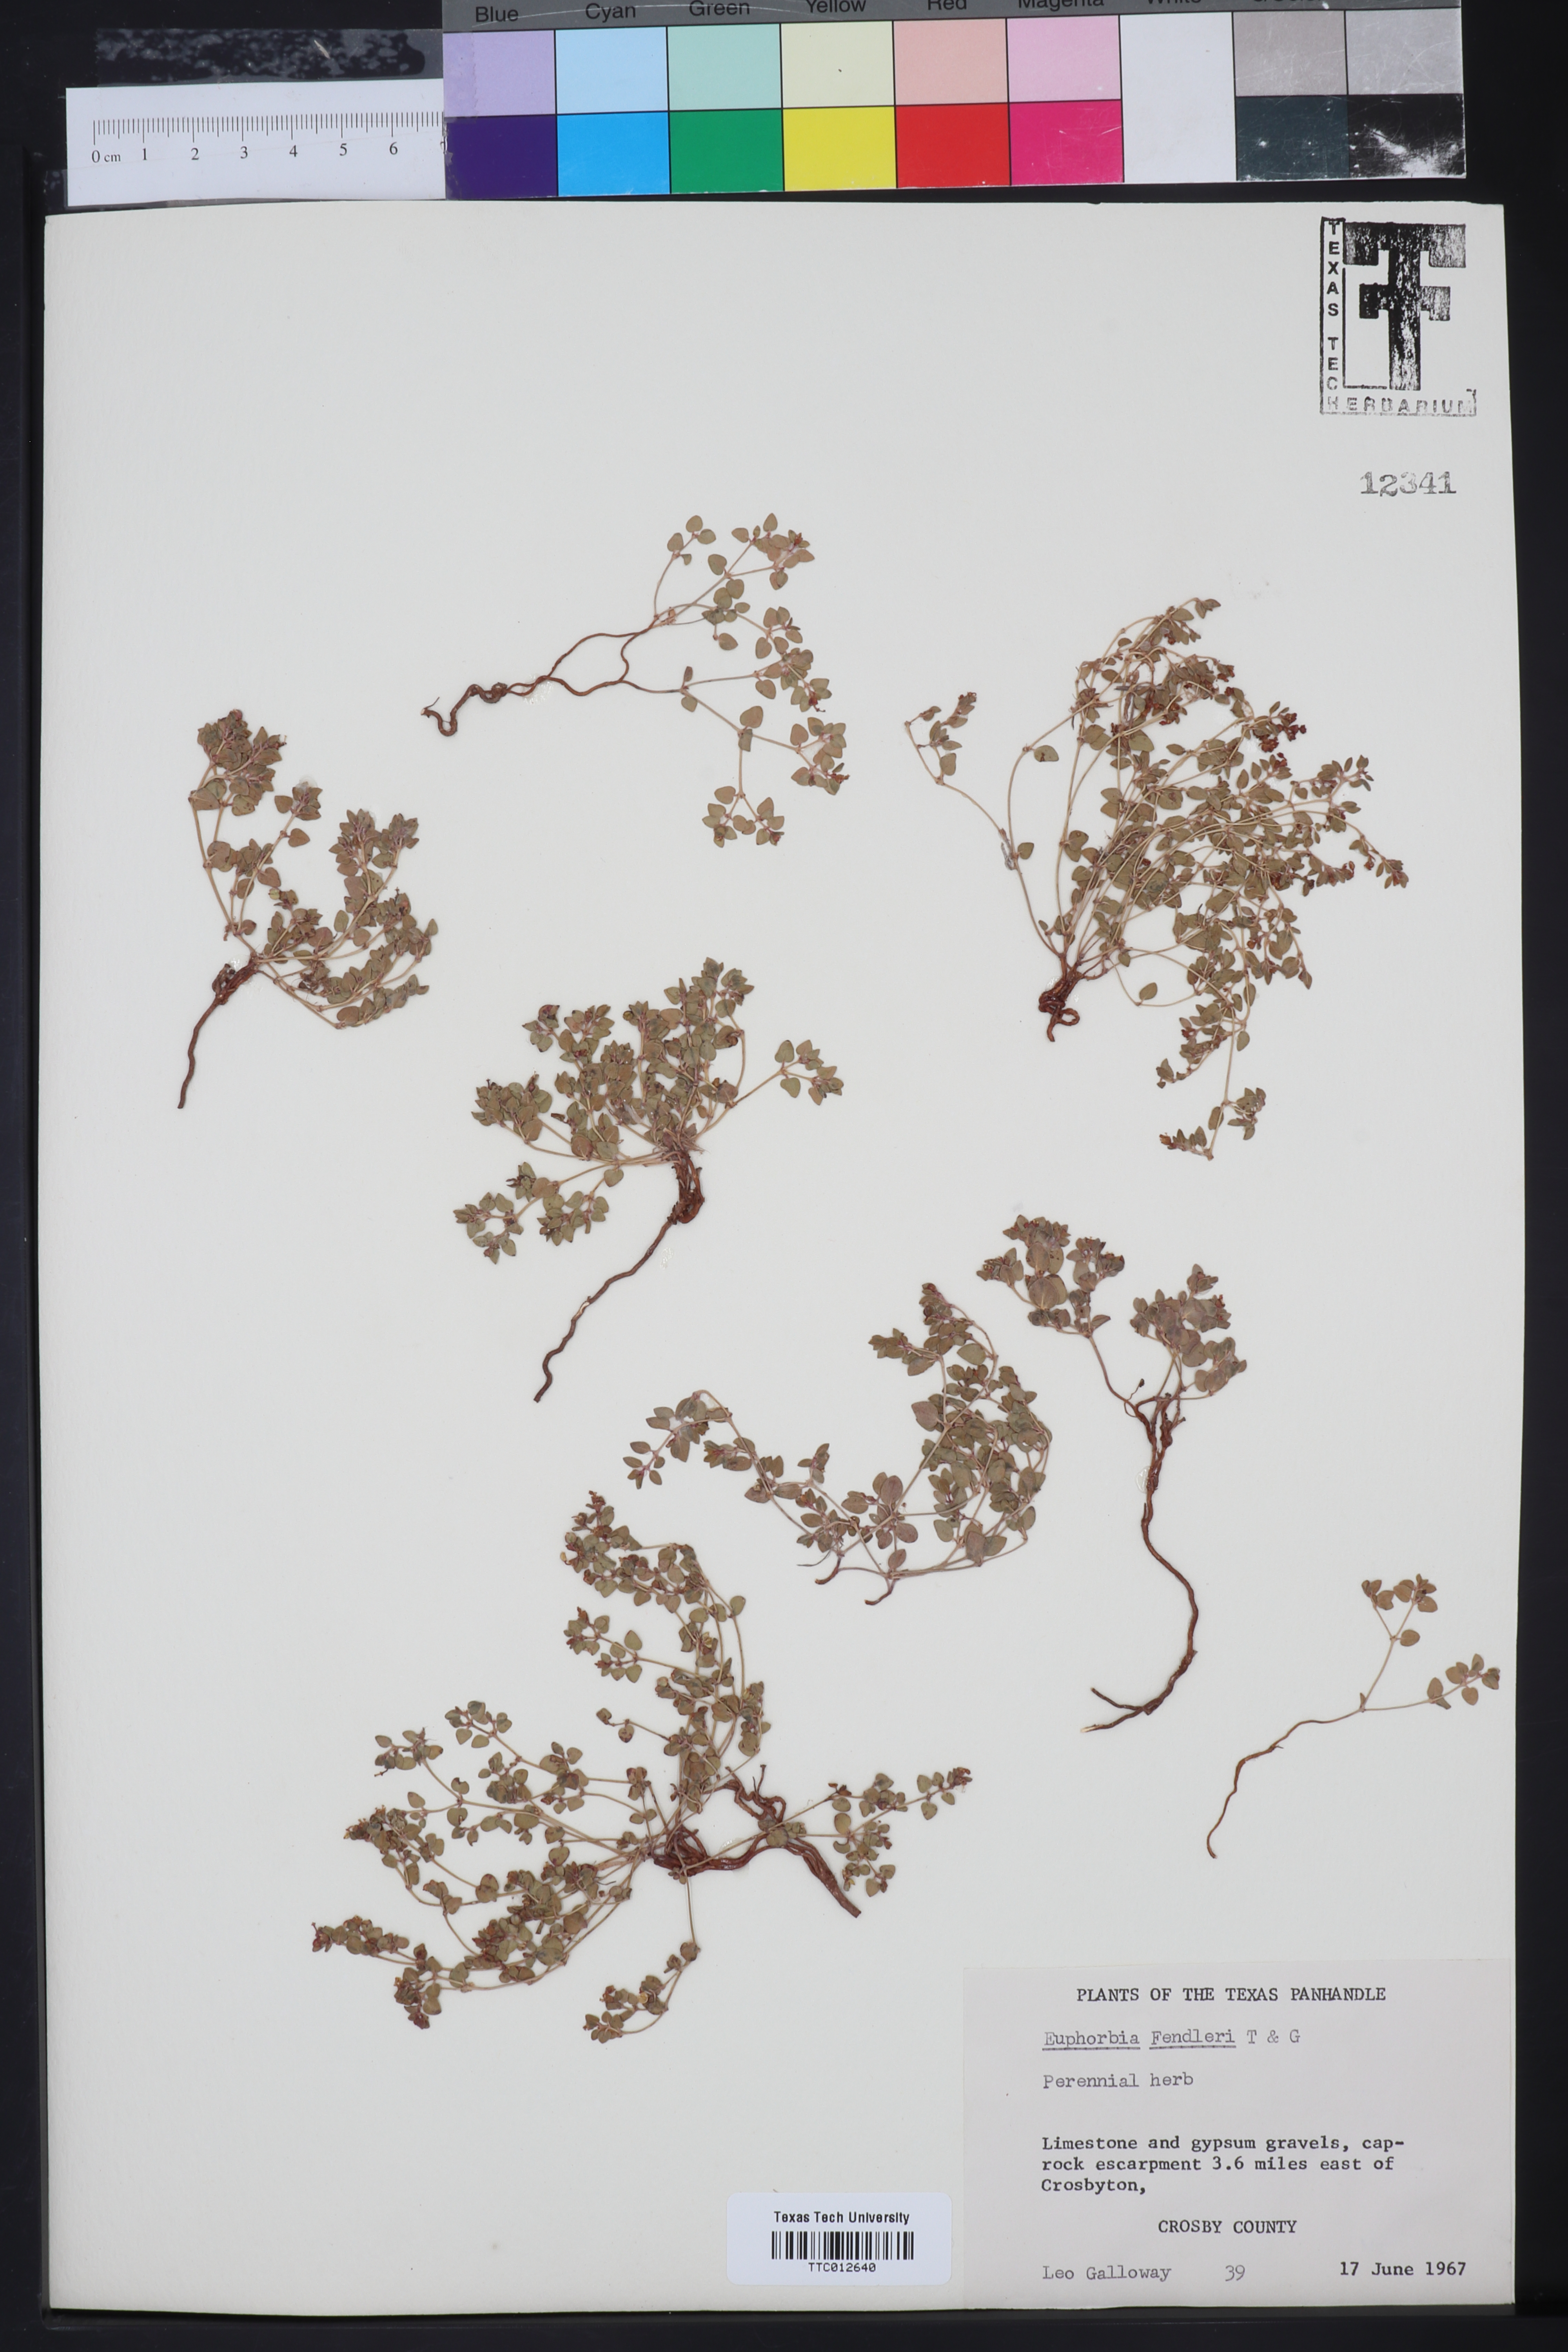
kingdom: Plantae
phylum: Tracheophyta
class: Magnoliopsida
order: Malpighiales
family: Euphorbiaceae
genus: Euphorbia
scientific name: Euphorbia fendleri
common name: Fendler's euphorbia
